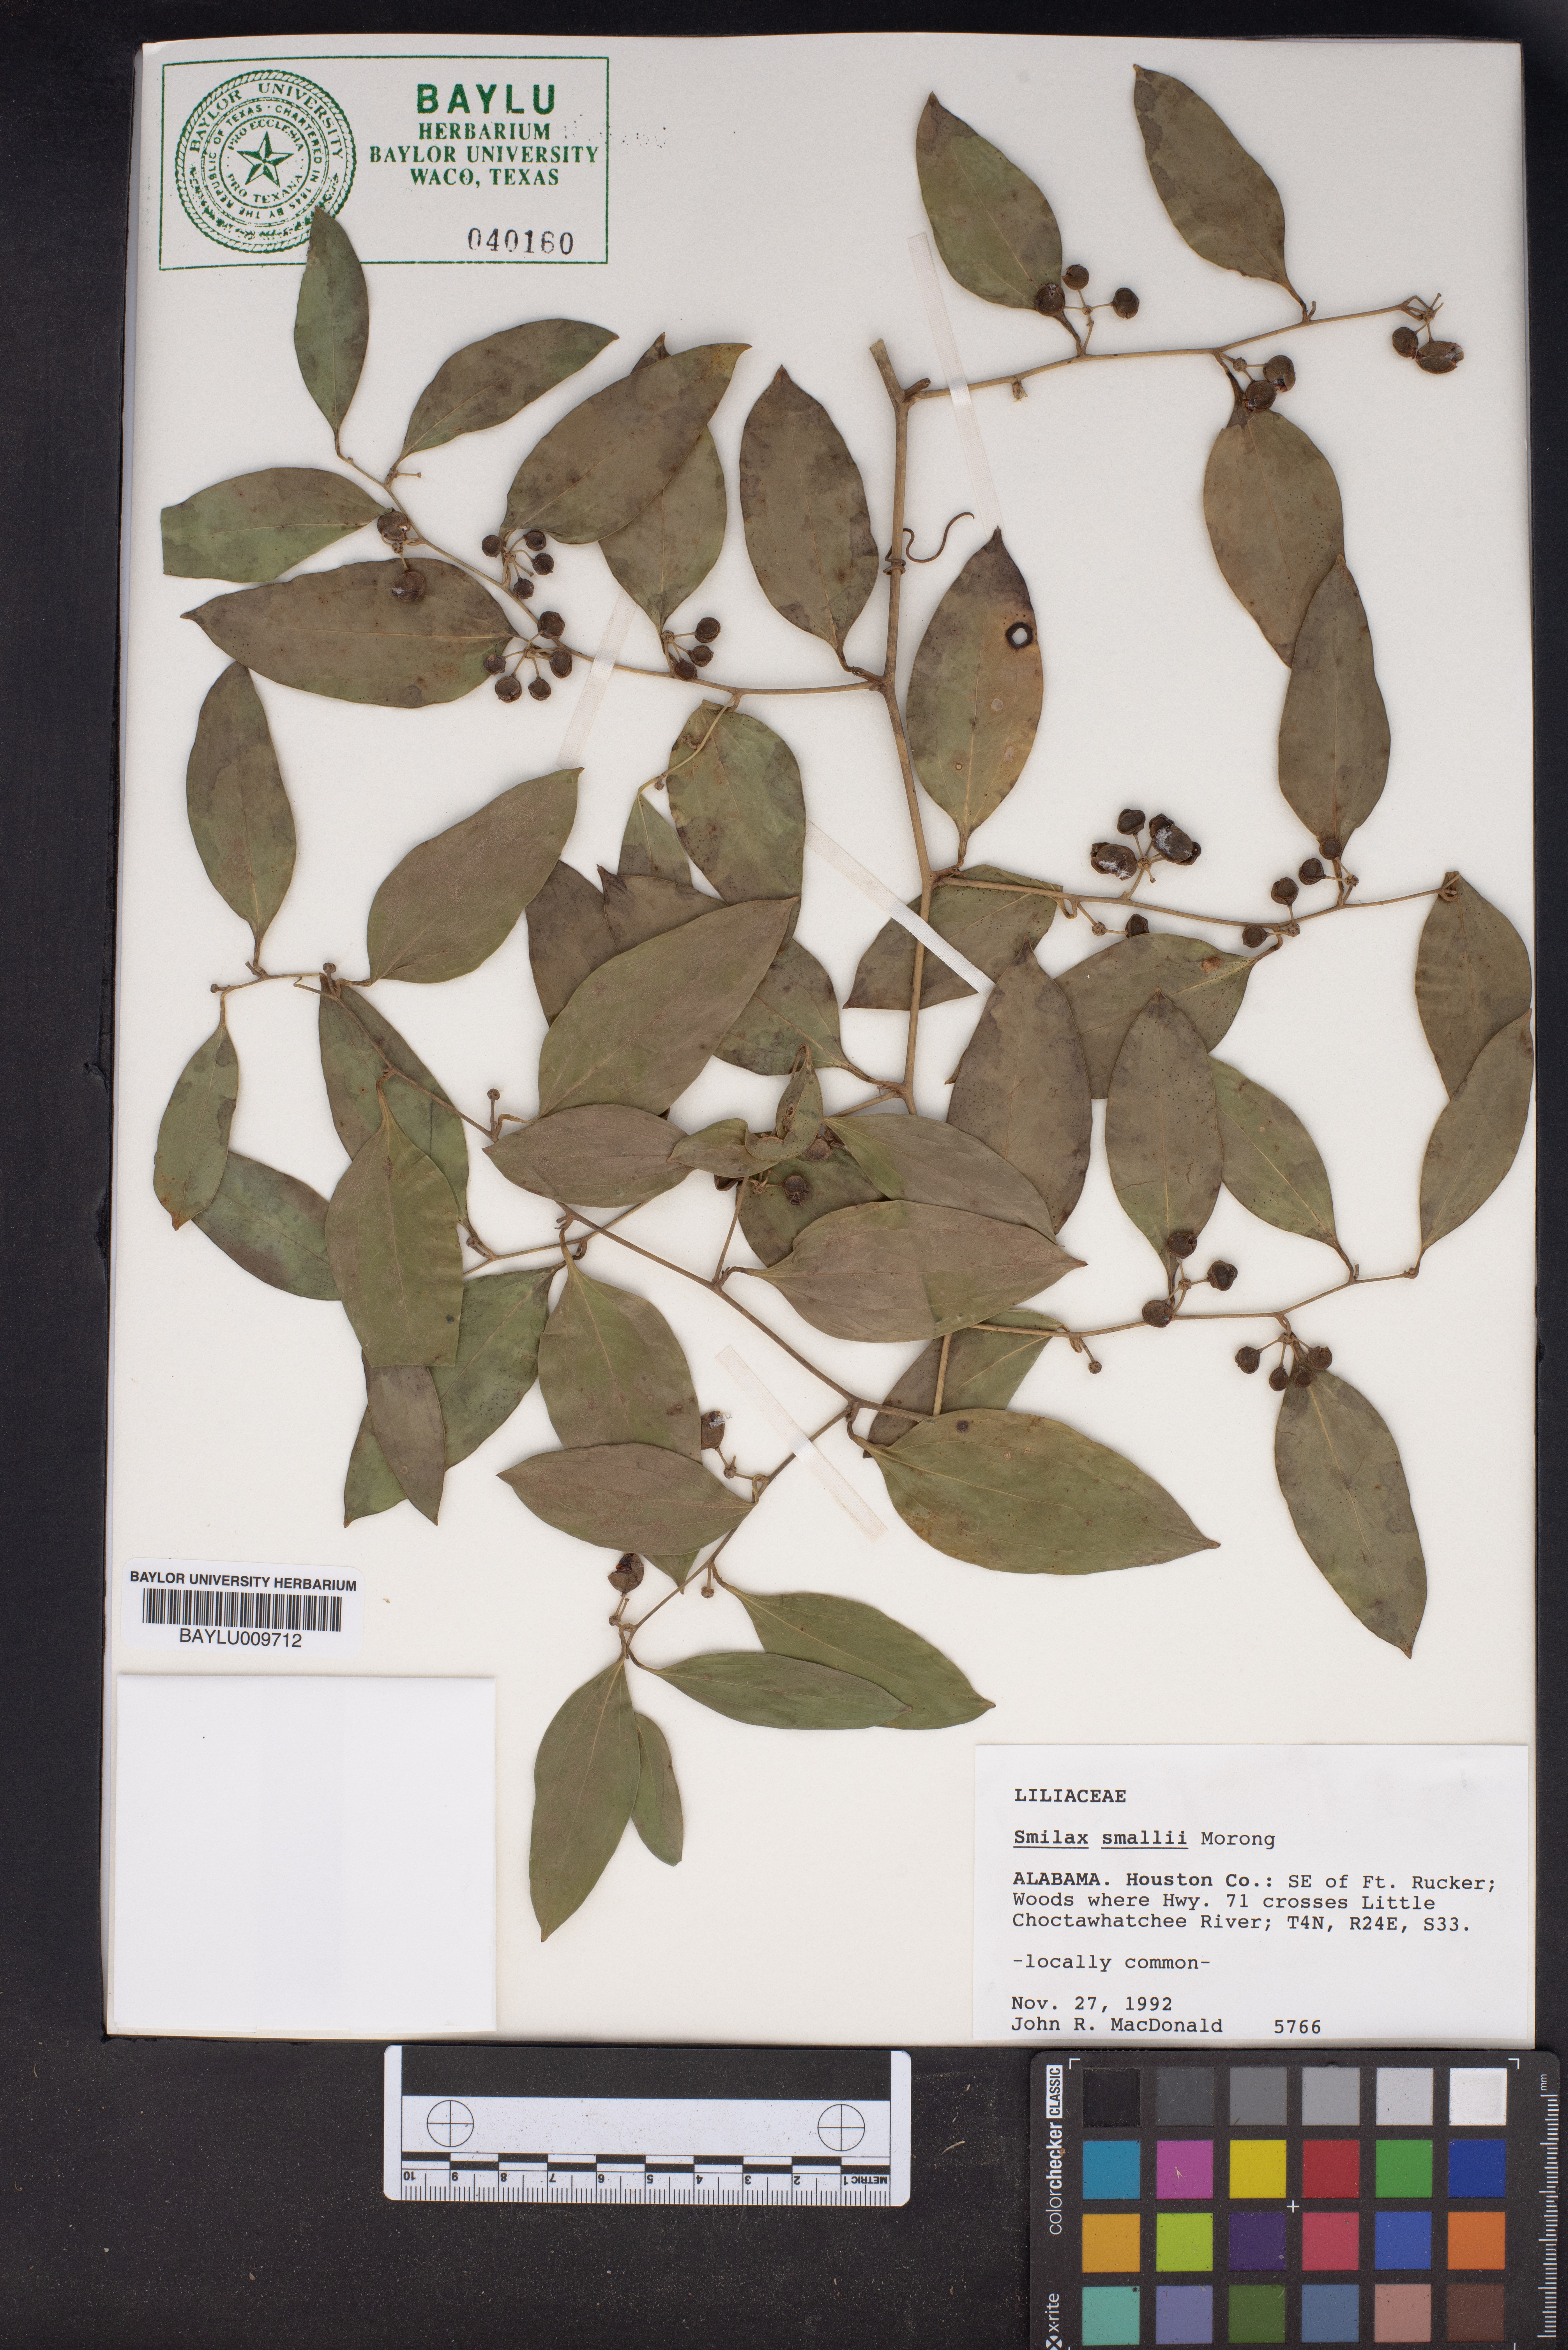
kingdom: Plantae
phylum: Tracheophyta
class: Liliopsida
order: Liliales
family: Smilacaceae
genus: Smilax
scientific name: Smilax maritima
